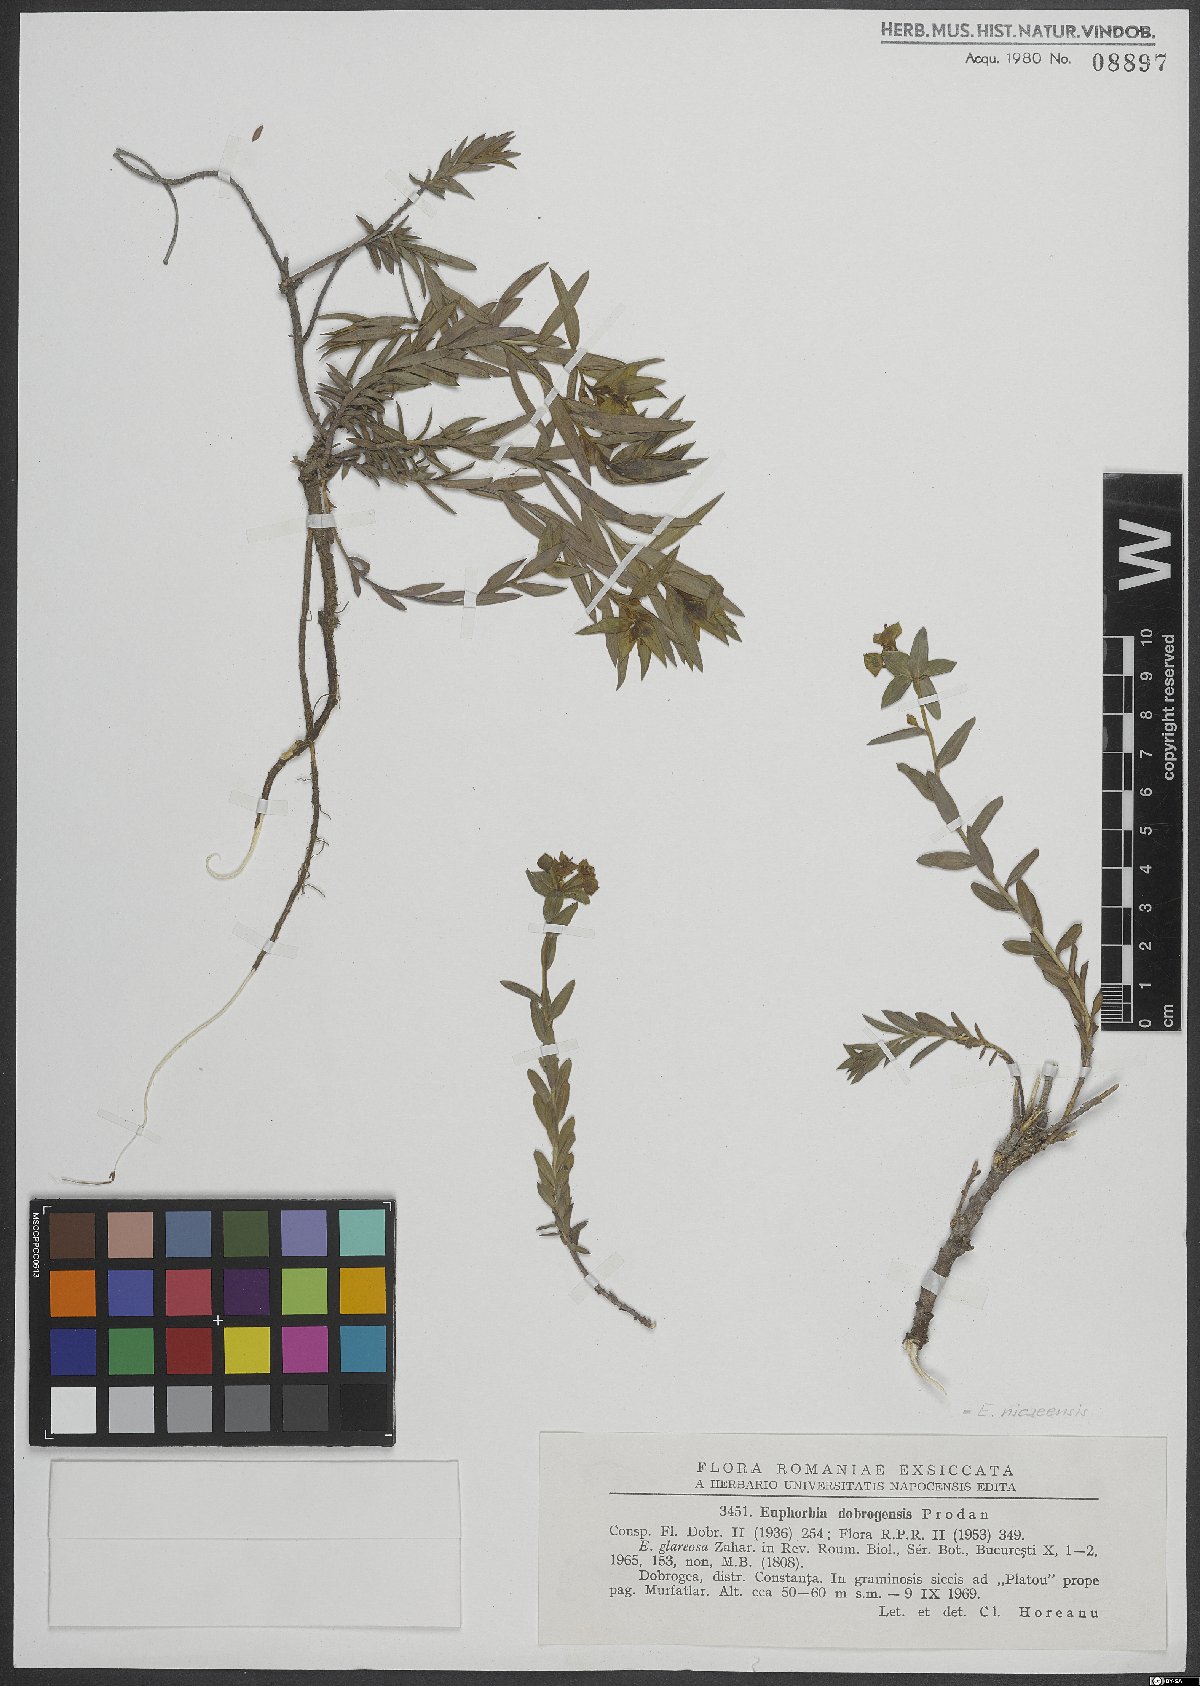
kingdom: Plantae
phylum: Tracheophyta
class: Magnoliopsida
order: Malpighiales
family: Euphorbiaceae
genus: Euphorbia
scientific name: Euphorbia nicaeensis
